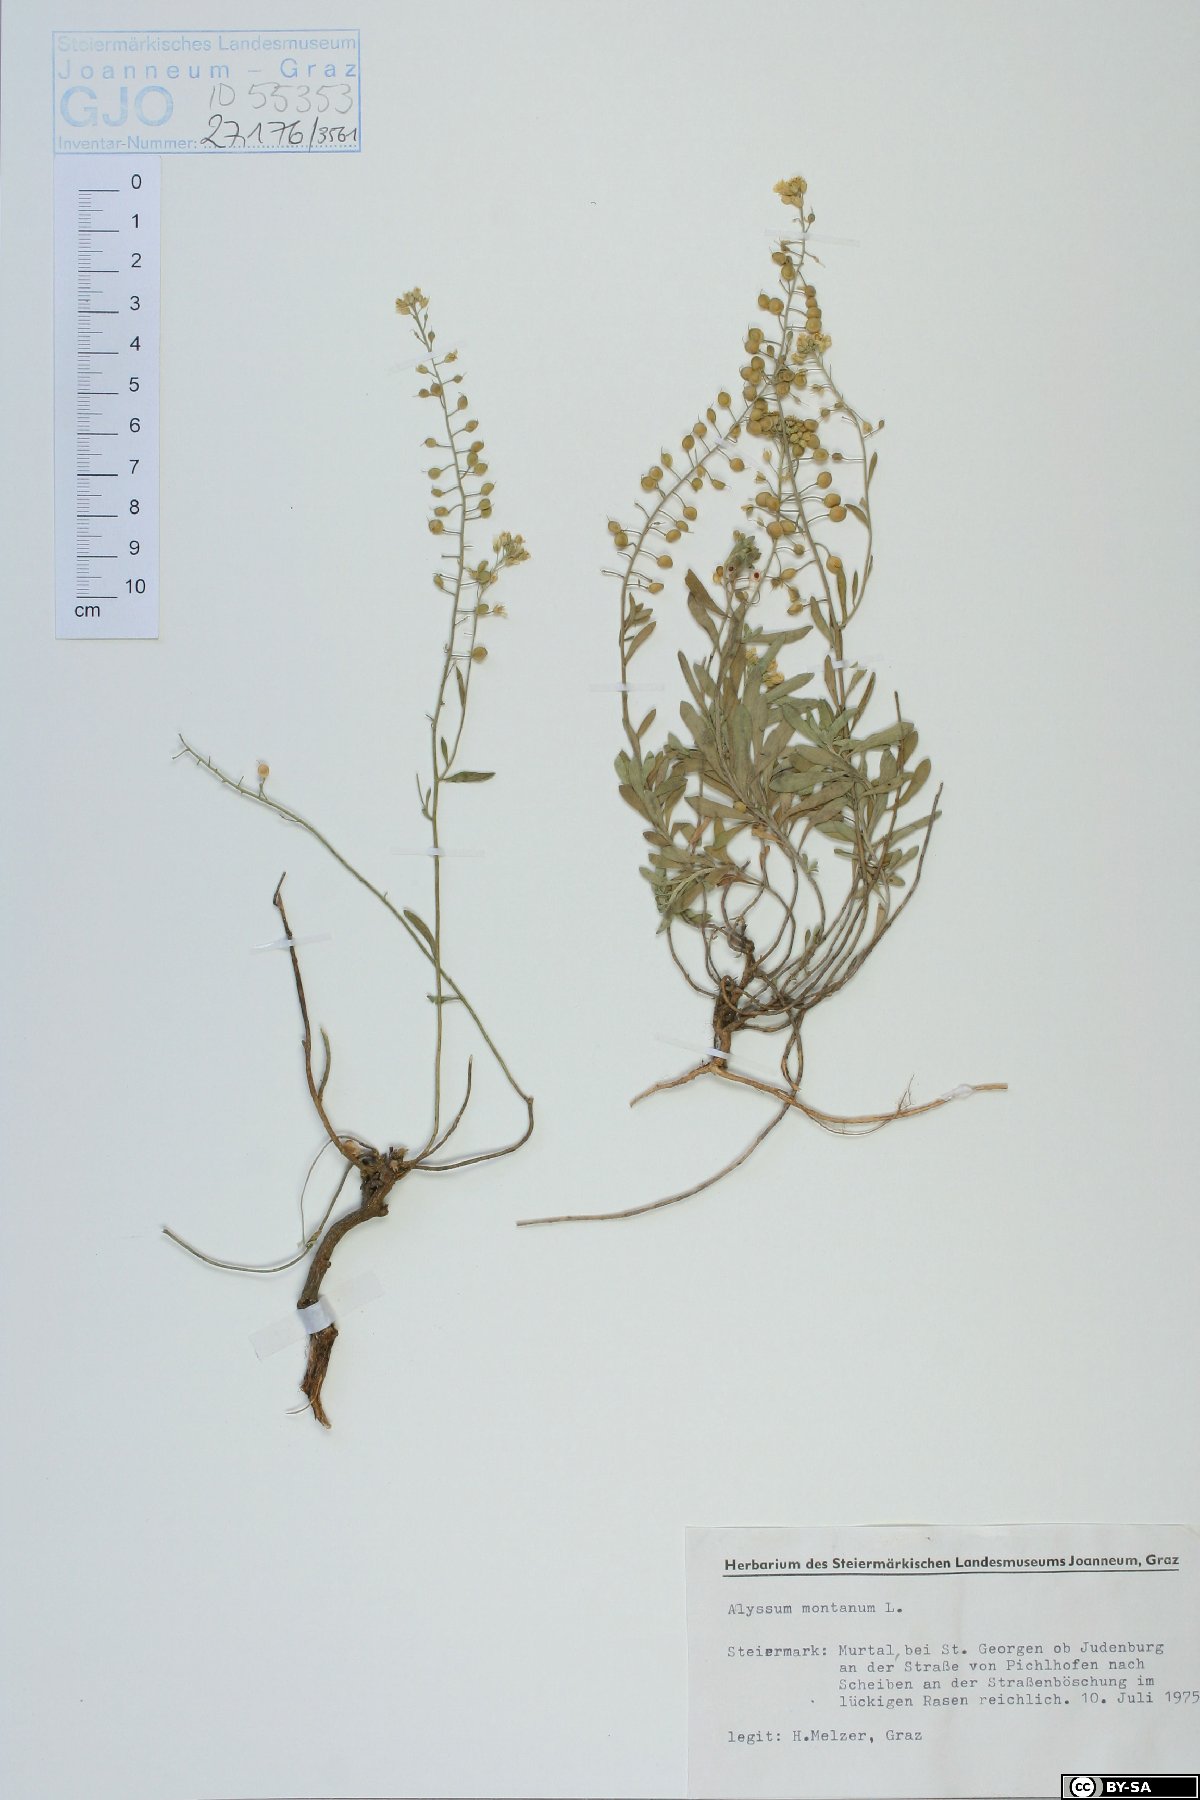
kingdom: Plantae
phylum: Tracheophyta
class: Magnoliopsida
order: Brassicales
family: Brassicaceae
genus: Alyssum
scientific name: Alyssum montanum
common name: Mountain alison
